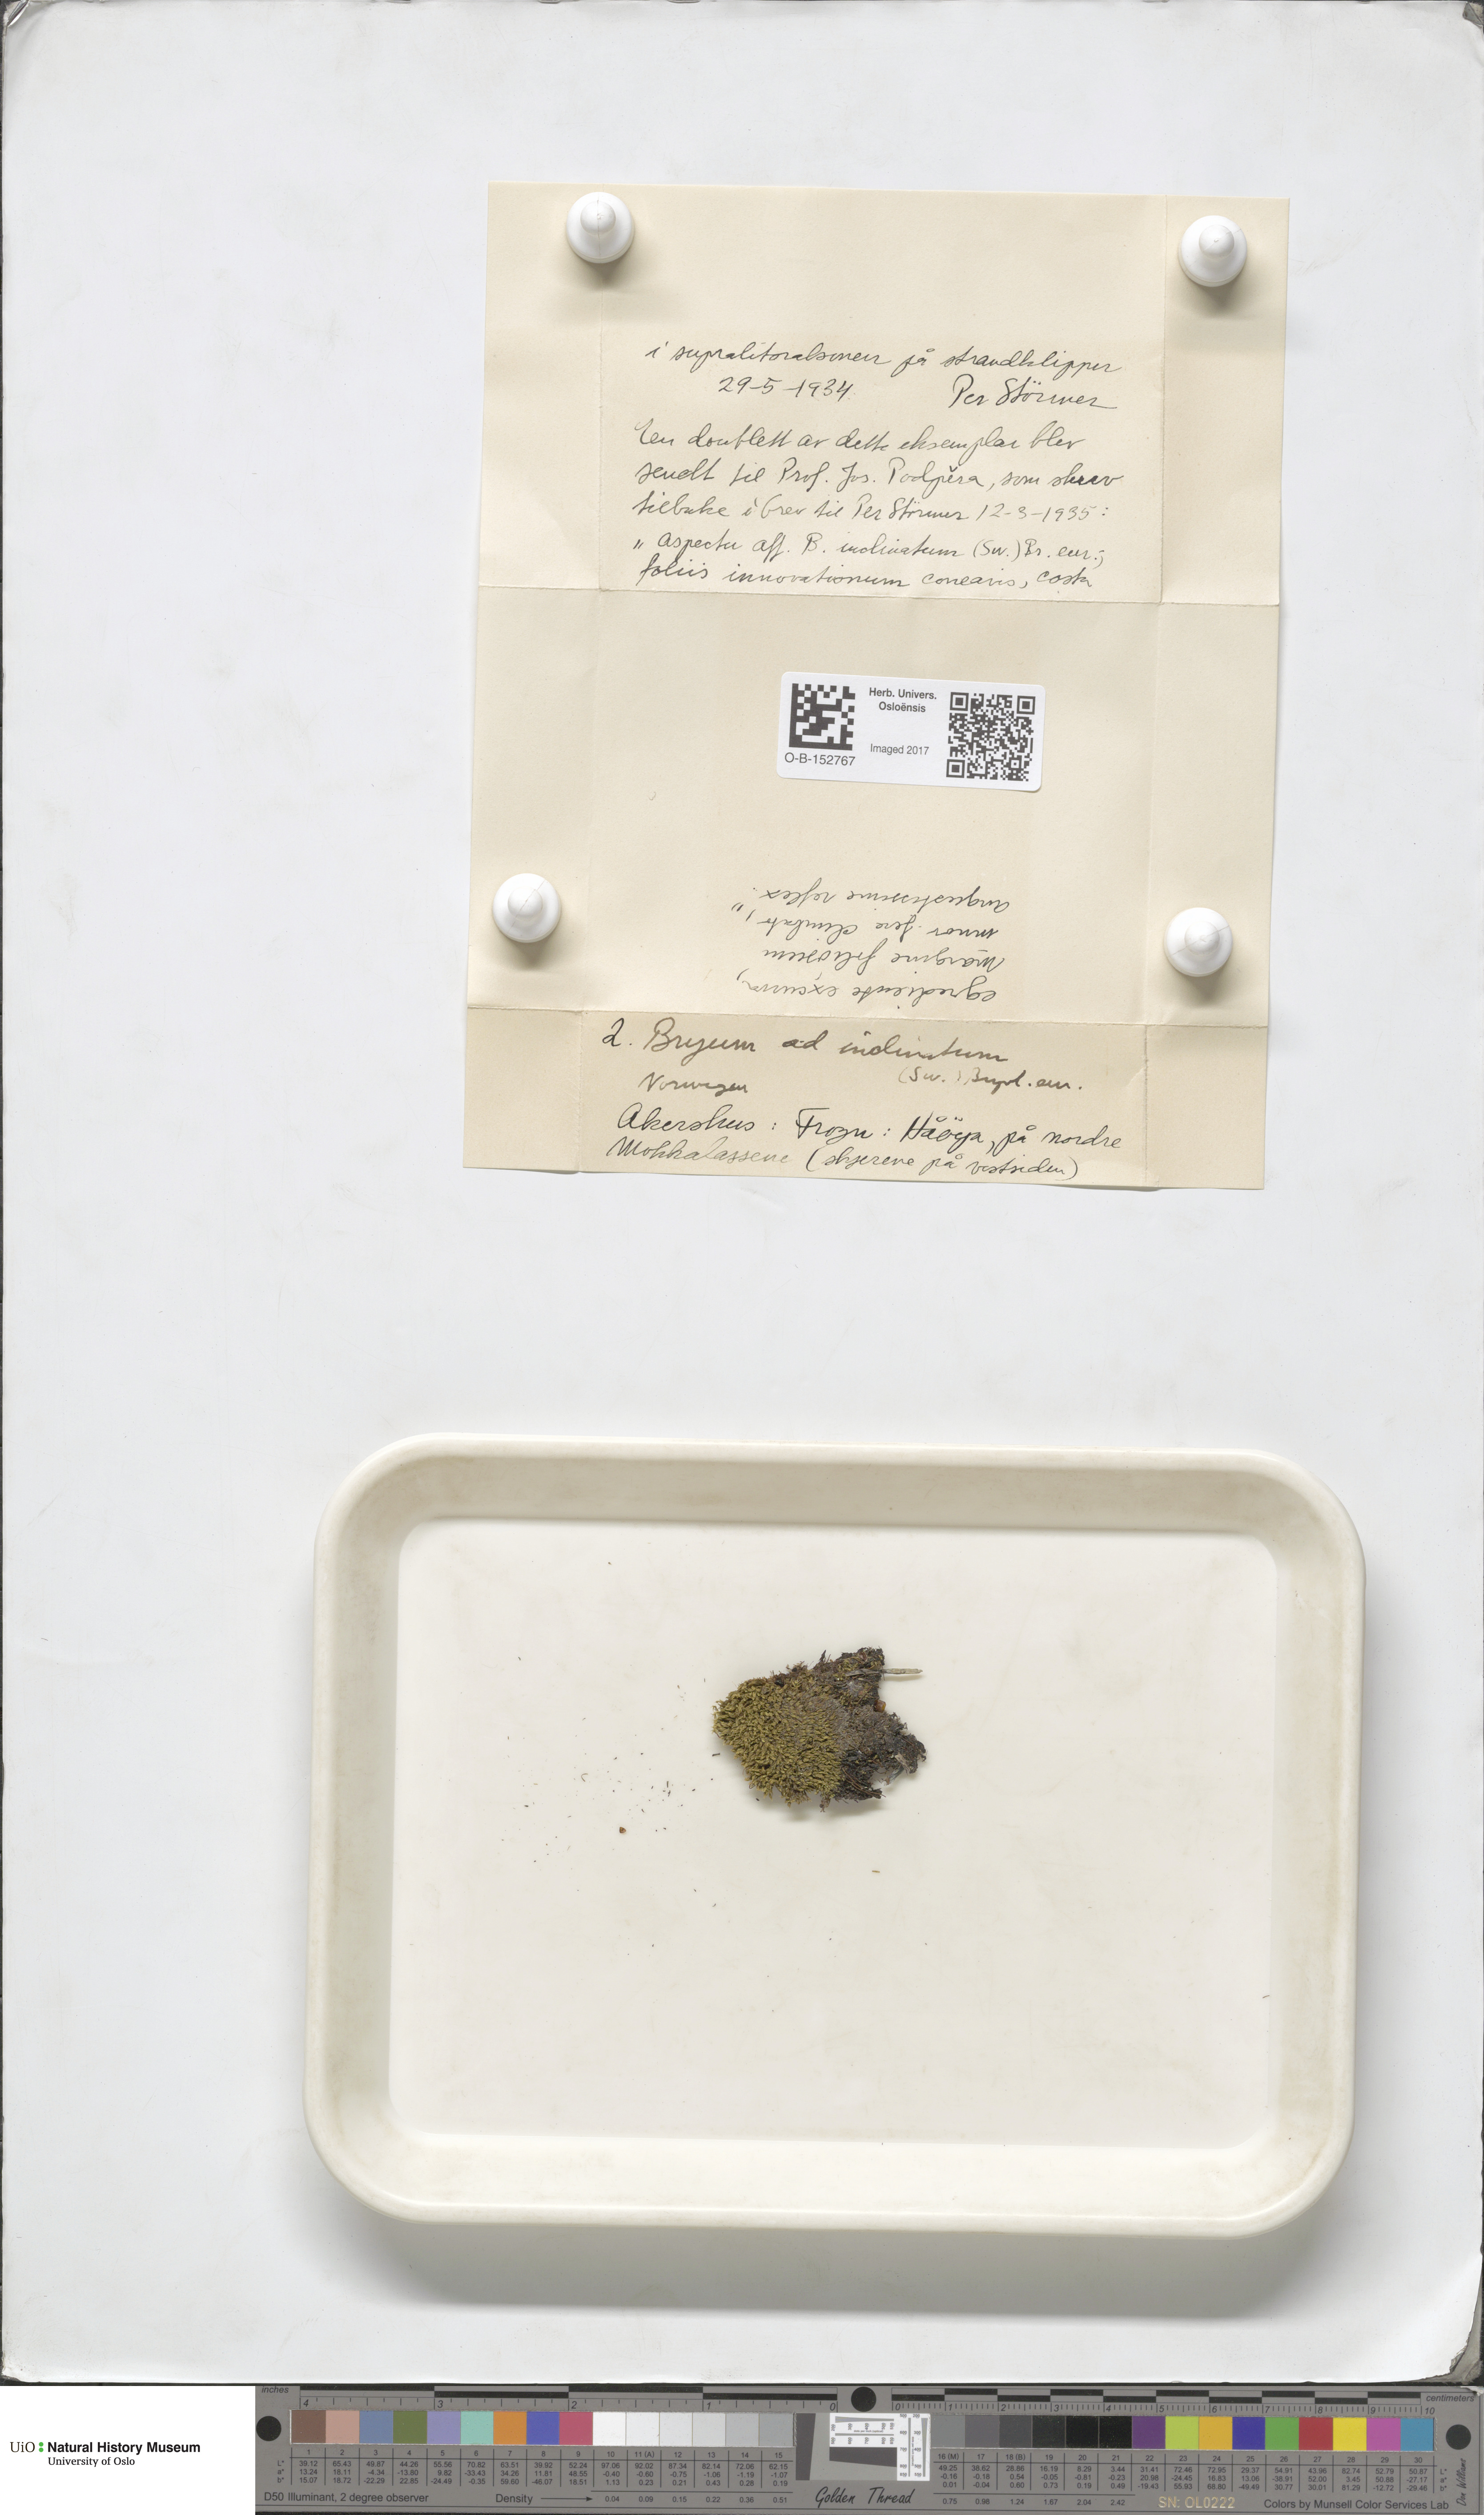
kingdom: Plantae
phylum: Bryophyta
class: Bryopsida
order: Bryales
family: Mniaceae
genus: Plagiomnium
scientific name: Plagiomnium undulatum
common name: Hart's-tongue thyme-moss
